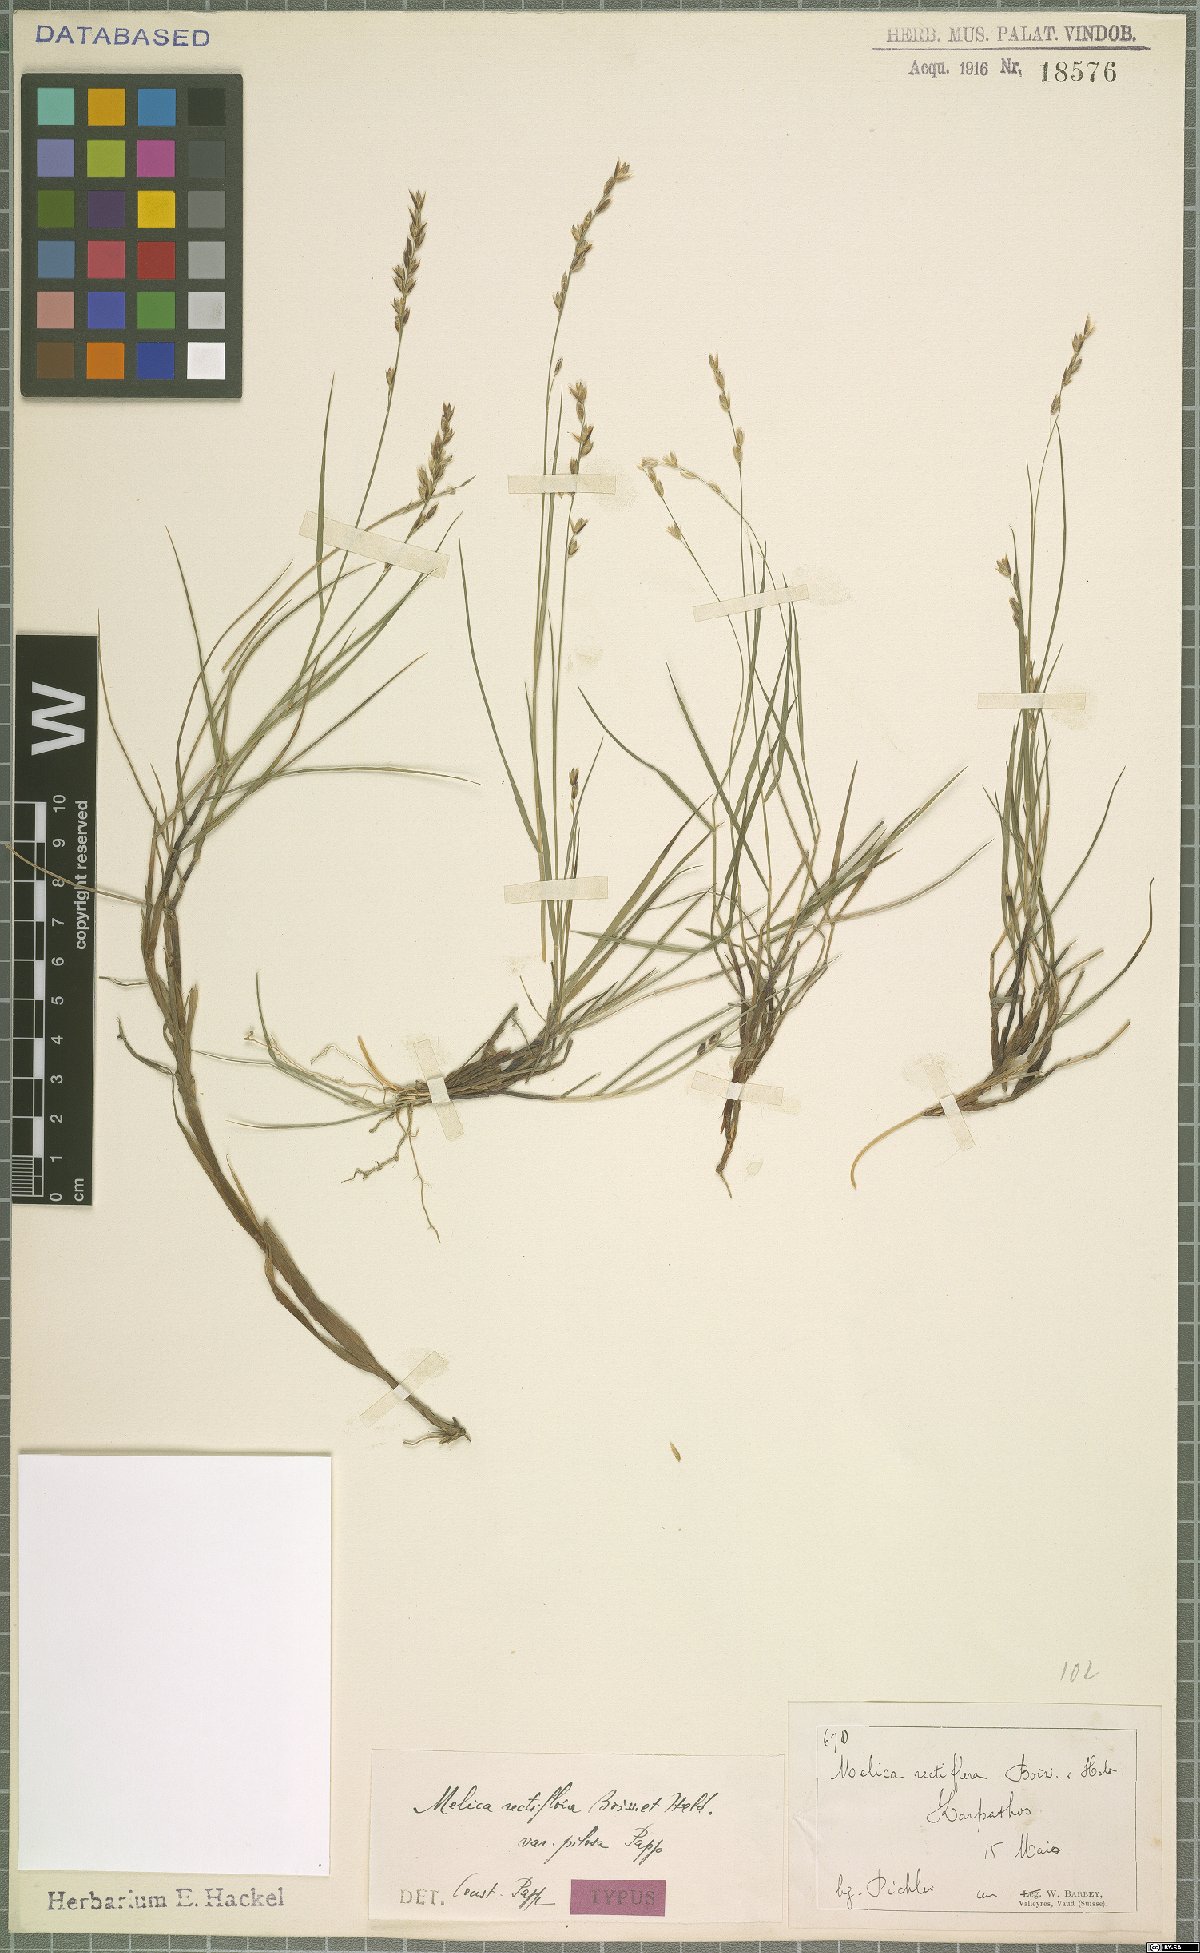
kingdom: Plantae
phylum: Tracheophyta
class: Liliopsida
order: Poales
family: Poaceae
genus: Melica
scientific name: Melica rectiflora
